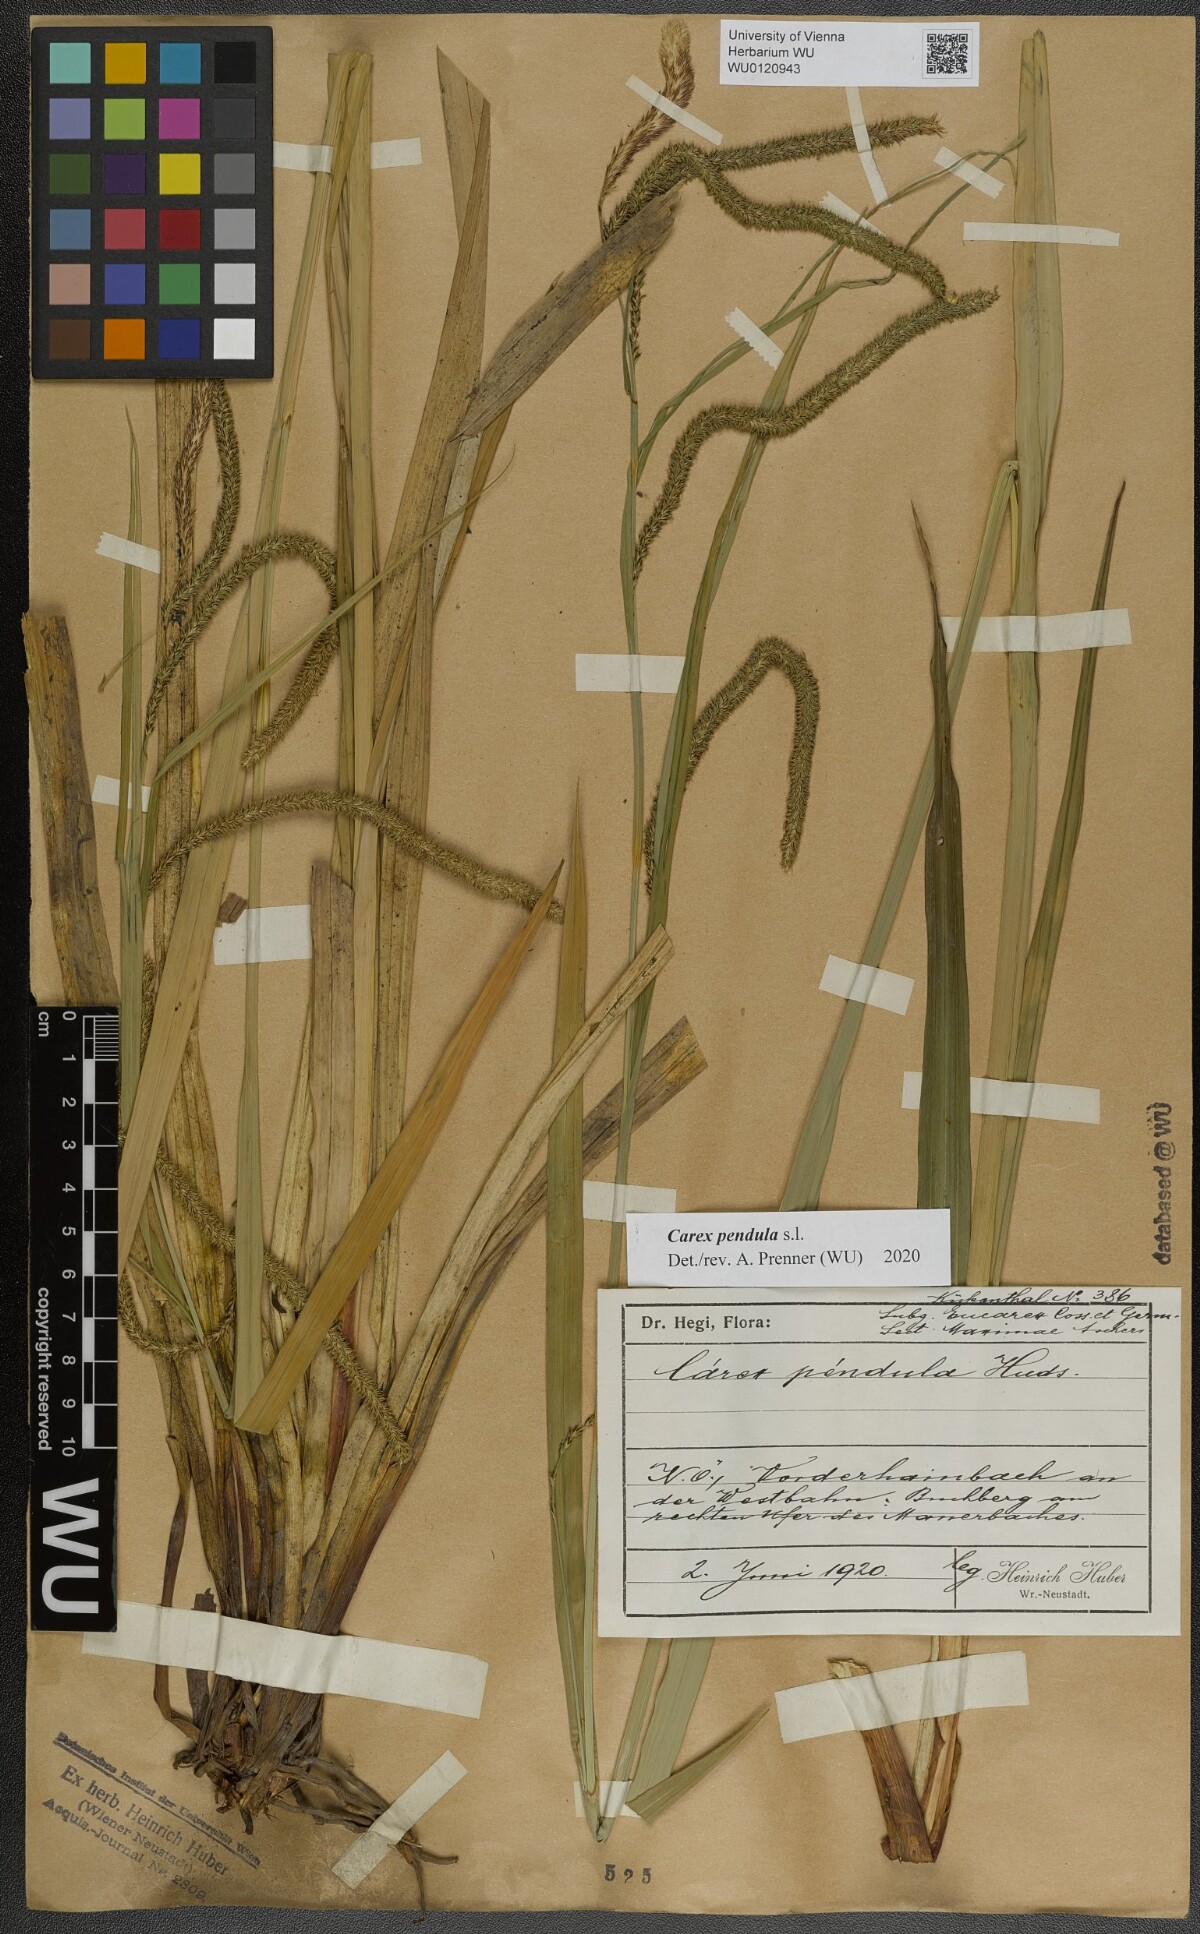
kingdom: Plantae
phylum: Tracheophyta
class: Liliopsida
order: Poales
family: Cyperaceae
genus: Carex
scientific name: Carex pendula
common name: Pendulous sedge
